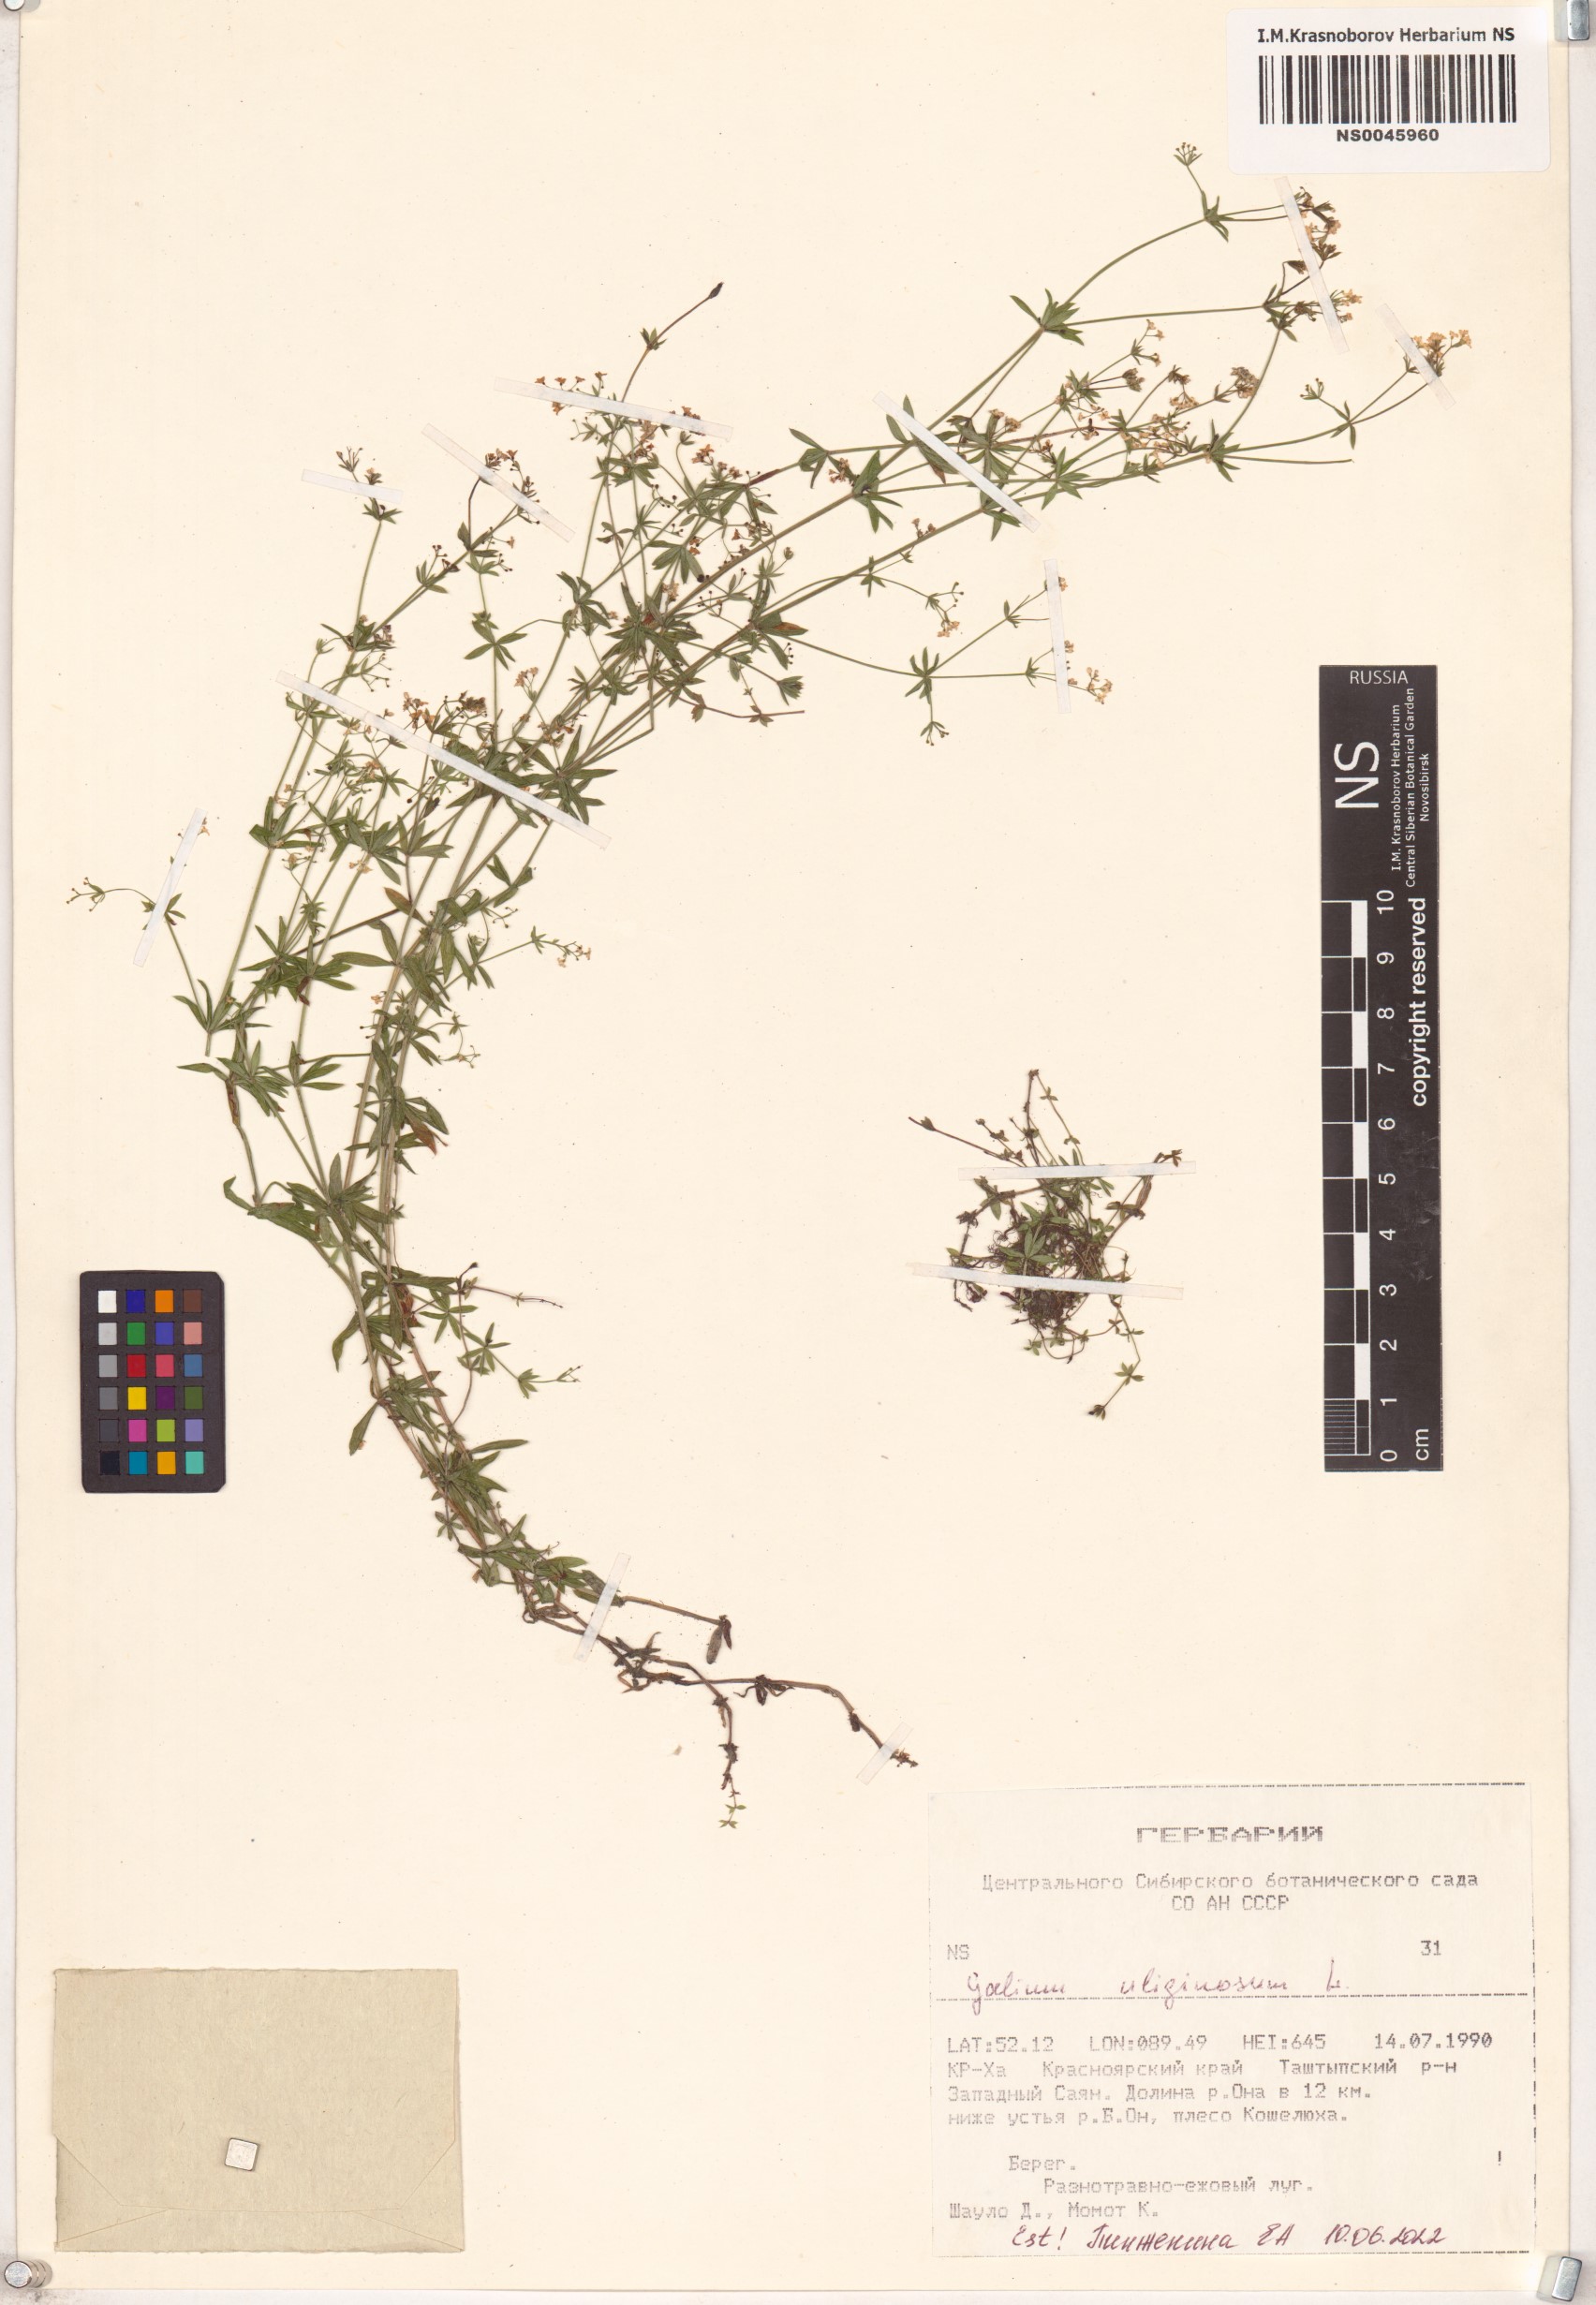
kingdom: Plantae
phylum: Tracheophyta
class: Magnoliopsida
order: Gentianales
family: Rubiaceae
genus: Galium
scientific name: Galium uliginosum
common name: Fen bedstraw
